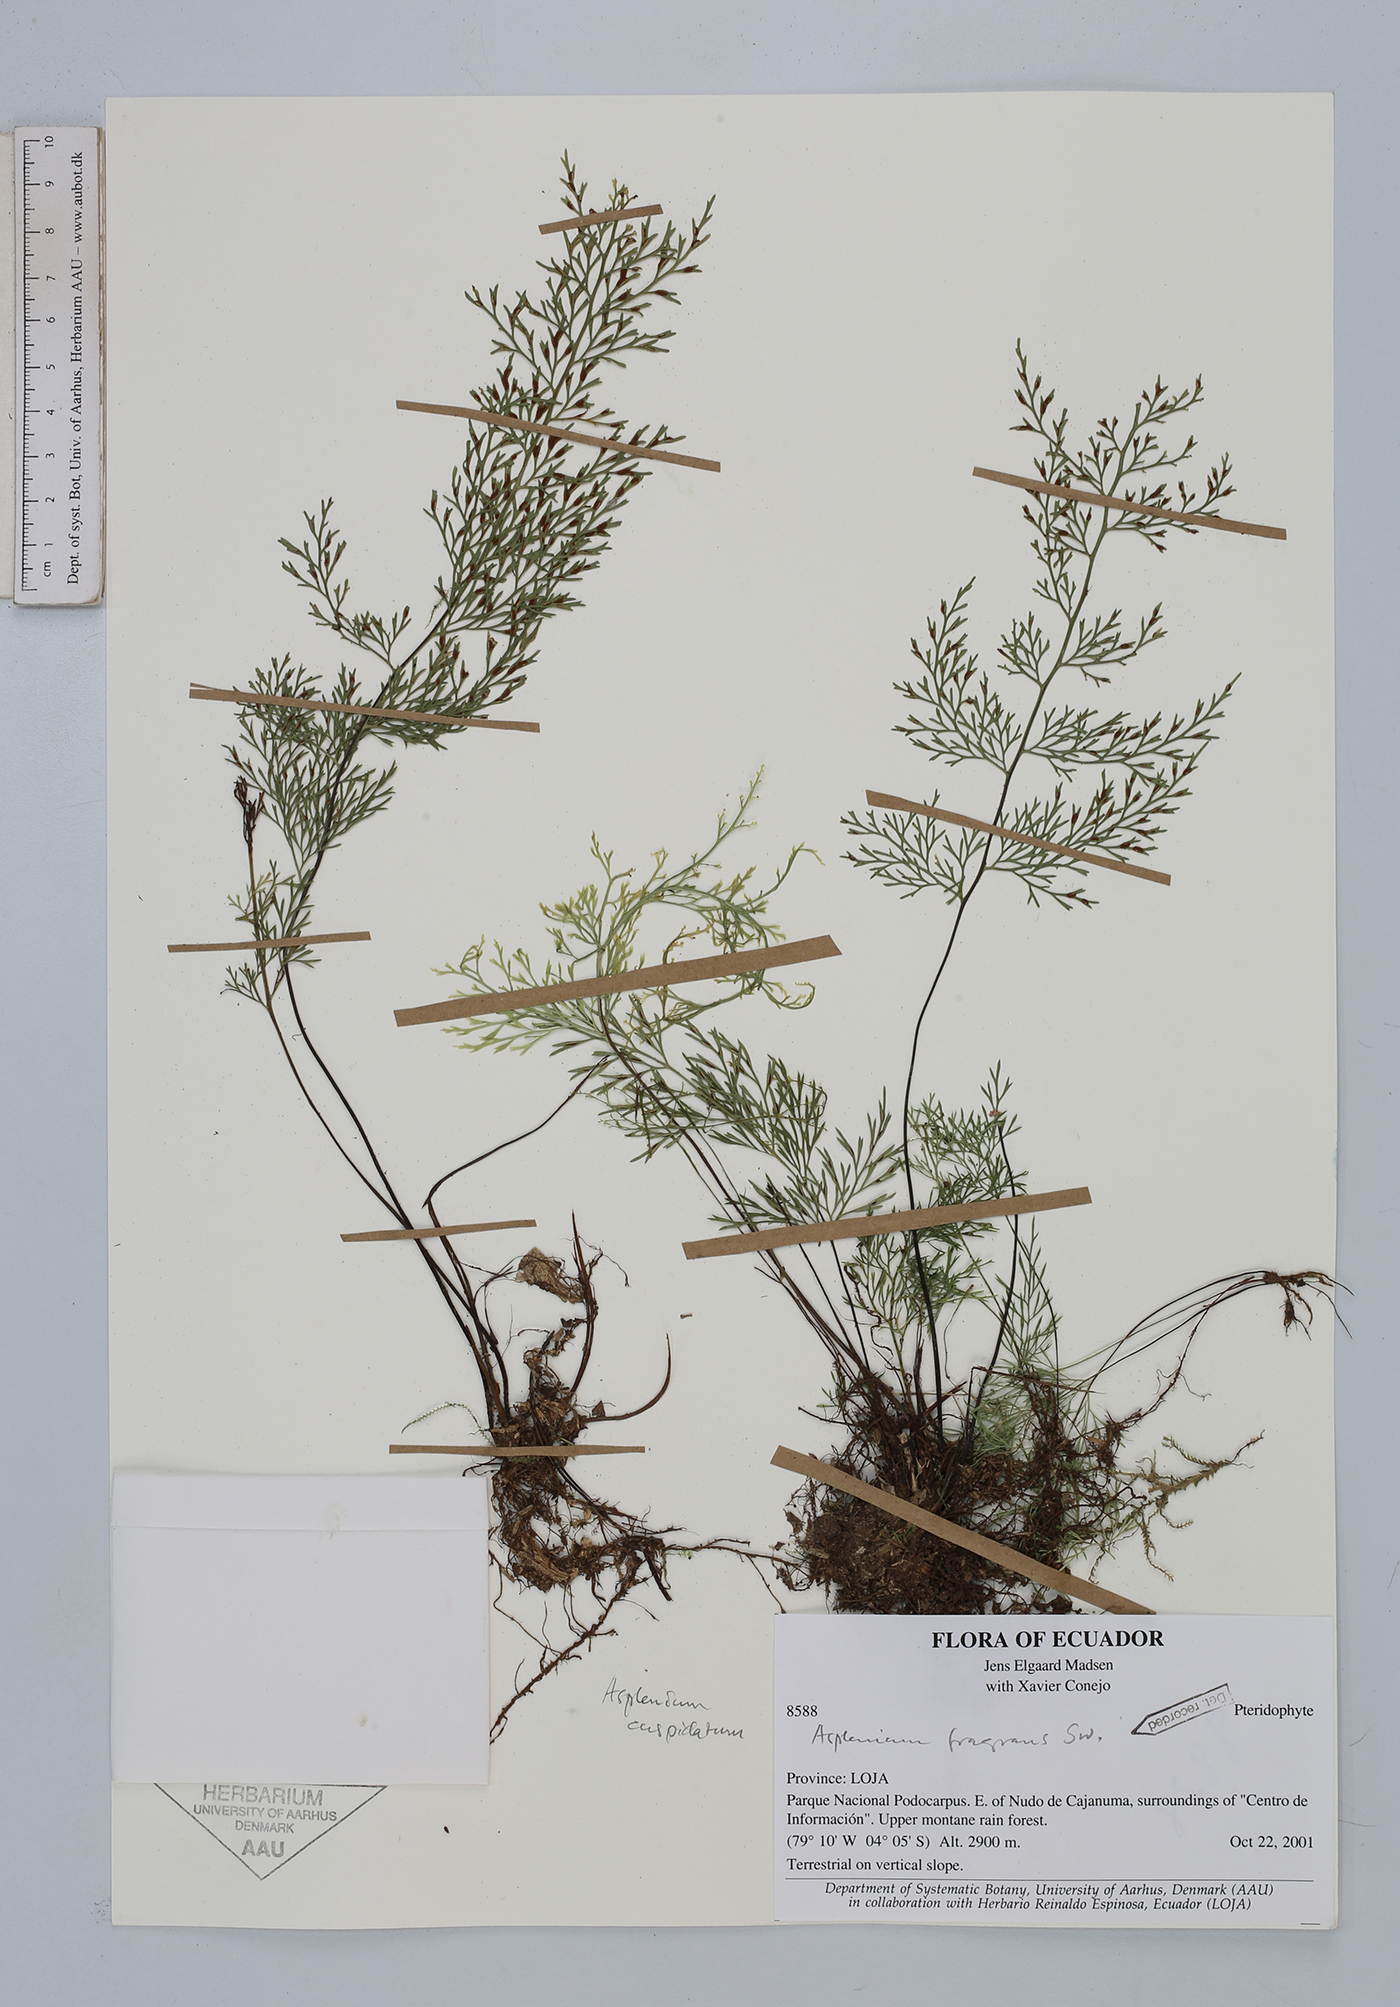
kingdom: Plantae
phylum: Tracheophyta
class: Polypodiopsida
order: Polypodiales
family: Aspleniaceae
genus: Asplenium
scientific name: Asplenium fragrans
